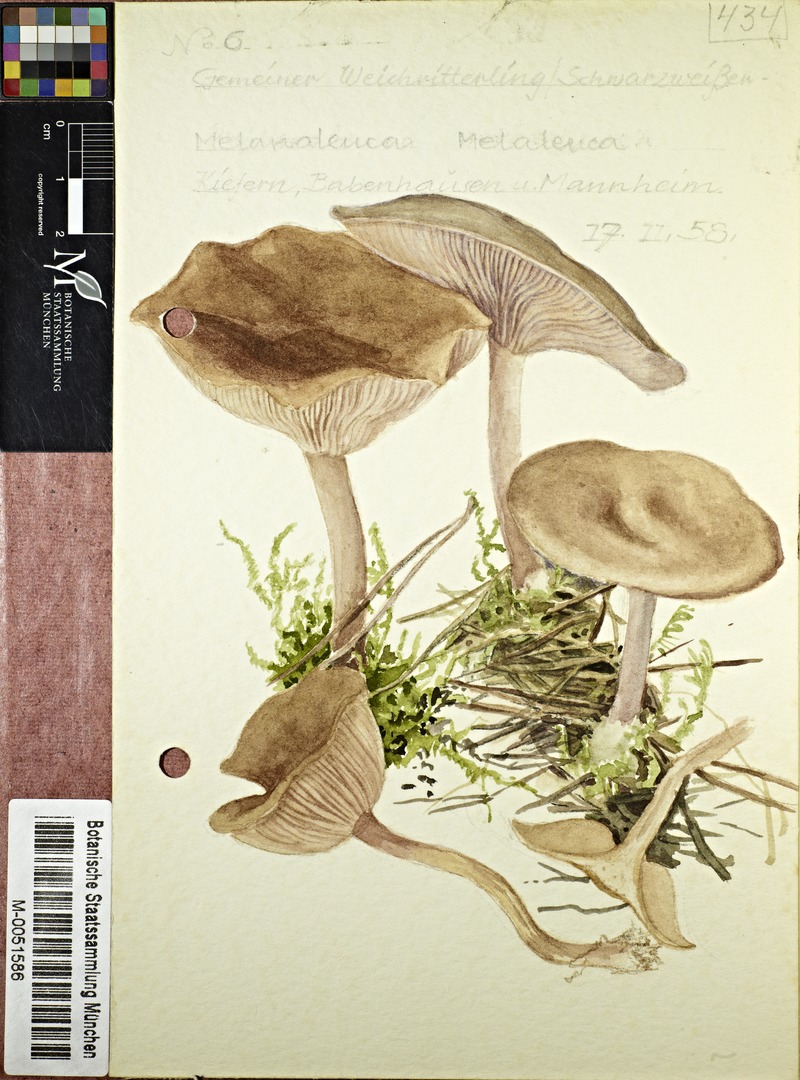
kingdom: Fungi
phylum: Basidiomycota
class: Agaricomycetes
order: Agaricales
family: Tricholomataceae
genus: Melanoleuca
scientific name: Melanoleuca melaleuca
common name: Bald cavalier
